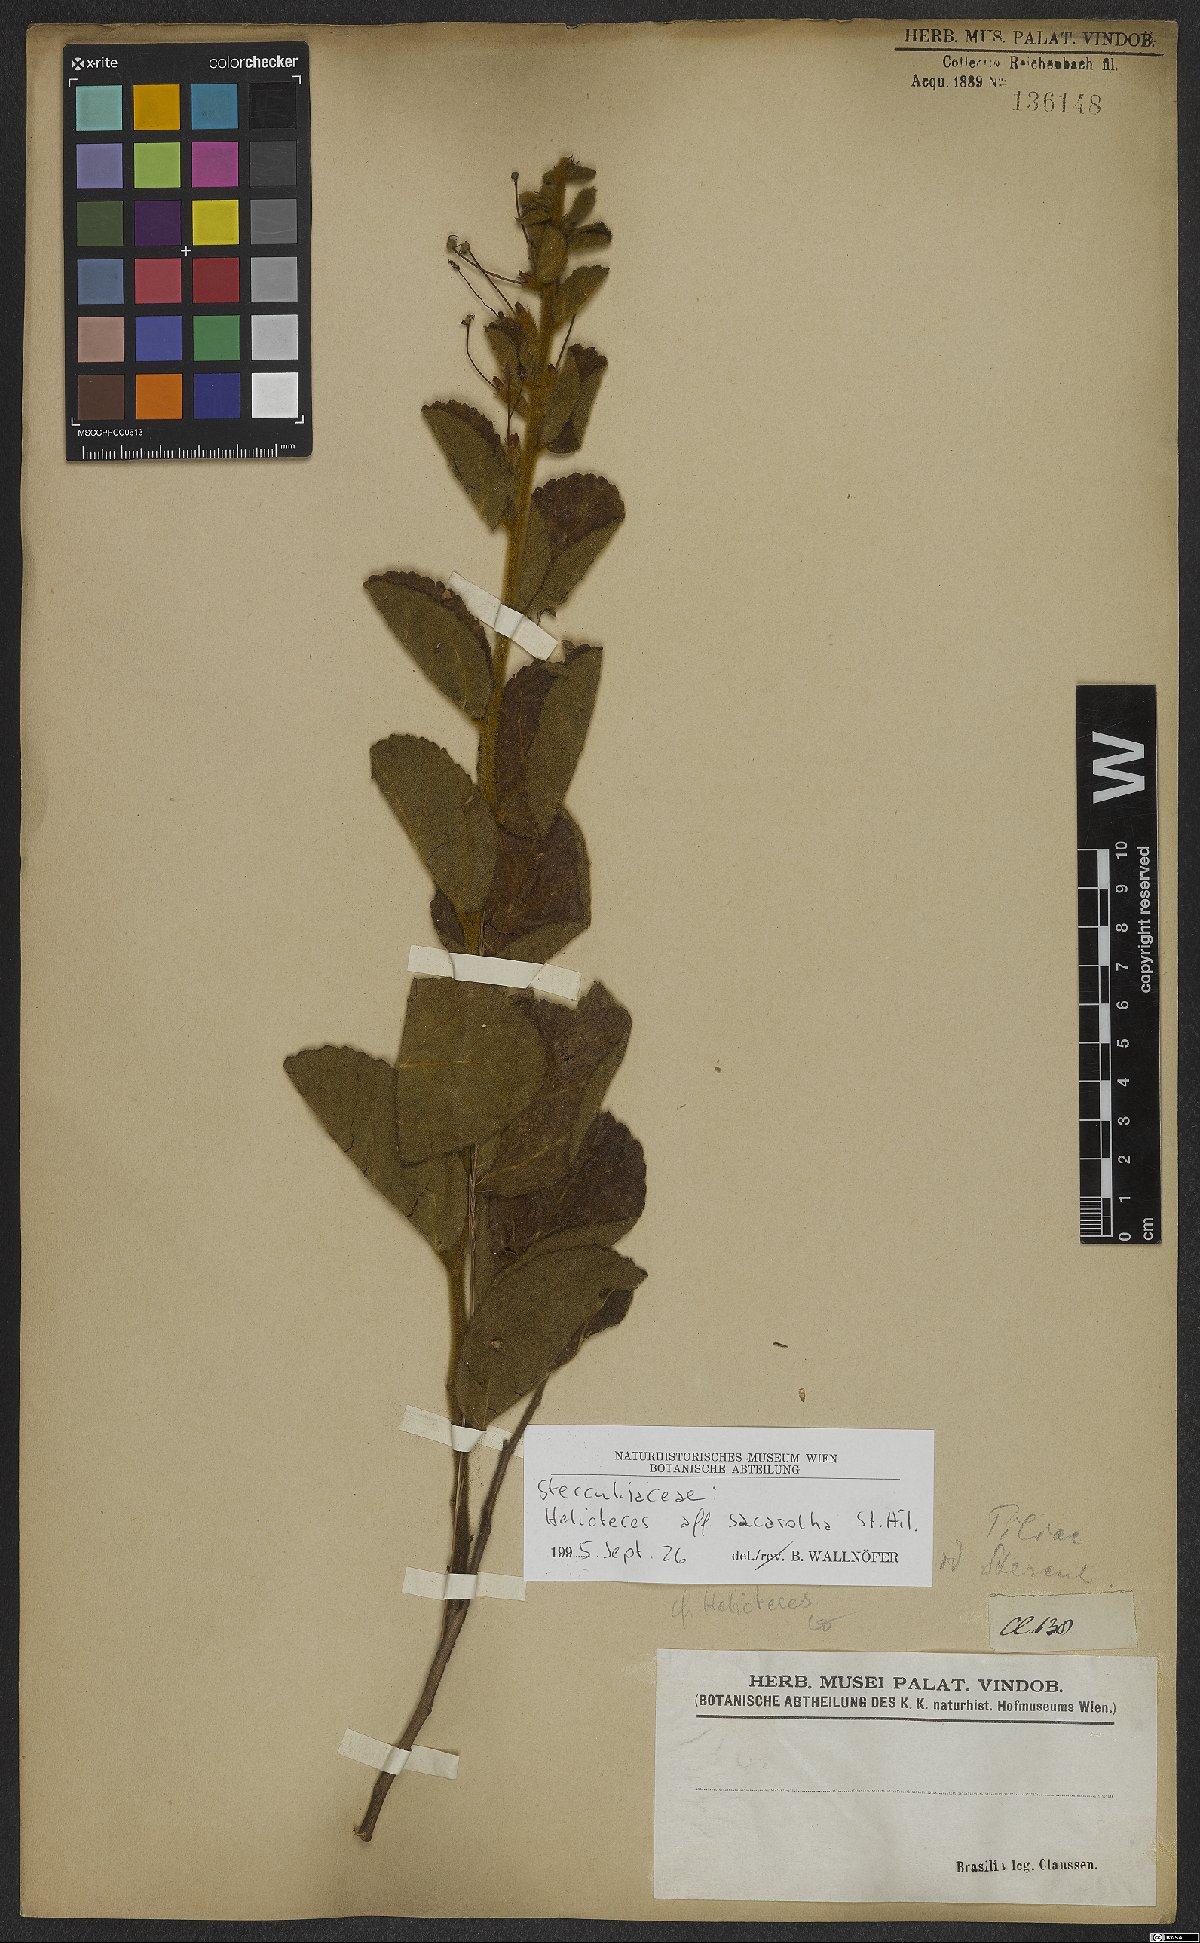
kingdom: Plantae
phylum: Tracheophyta
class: Magnoliopsida
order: Malvales
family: Malvaceae
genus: Helicteres
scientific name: Helicteres sacarolha
